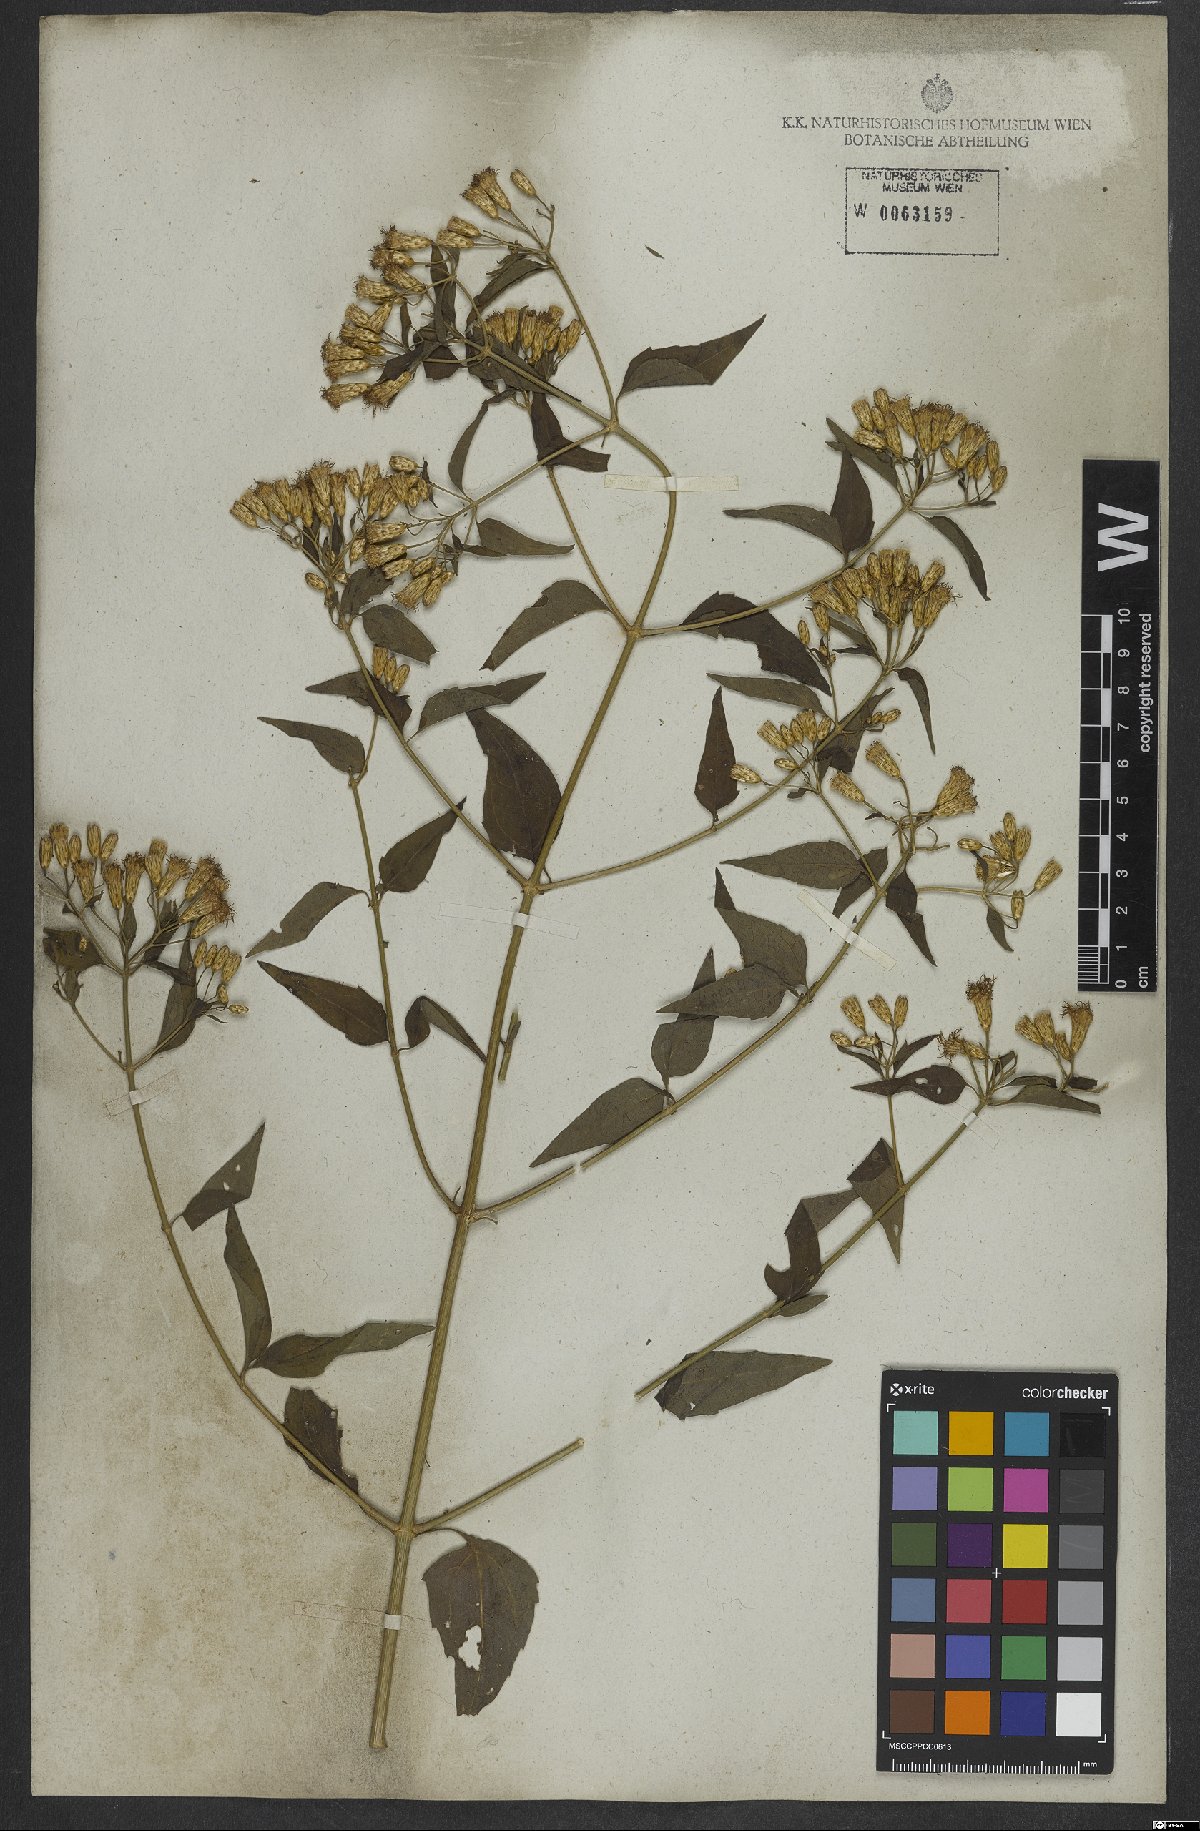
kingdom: Plantae
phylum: Tracheophyta
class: Magnoliopsida
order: Asterales
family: Asteraceae
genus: Chromolaena
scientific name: Chromolaena odorata
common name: Siamweed
